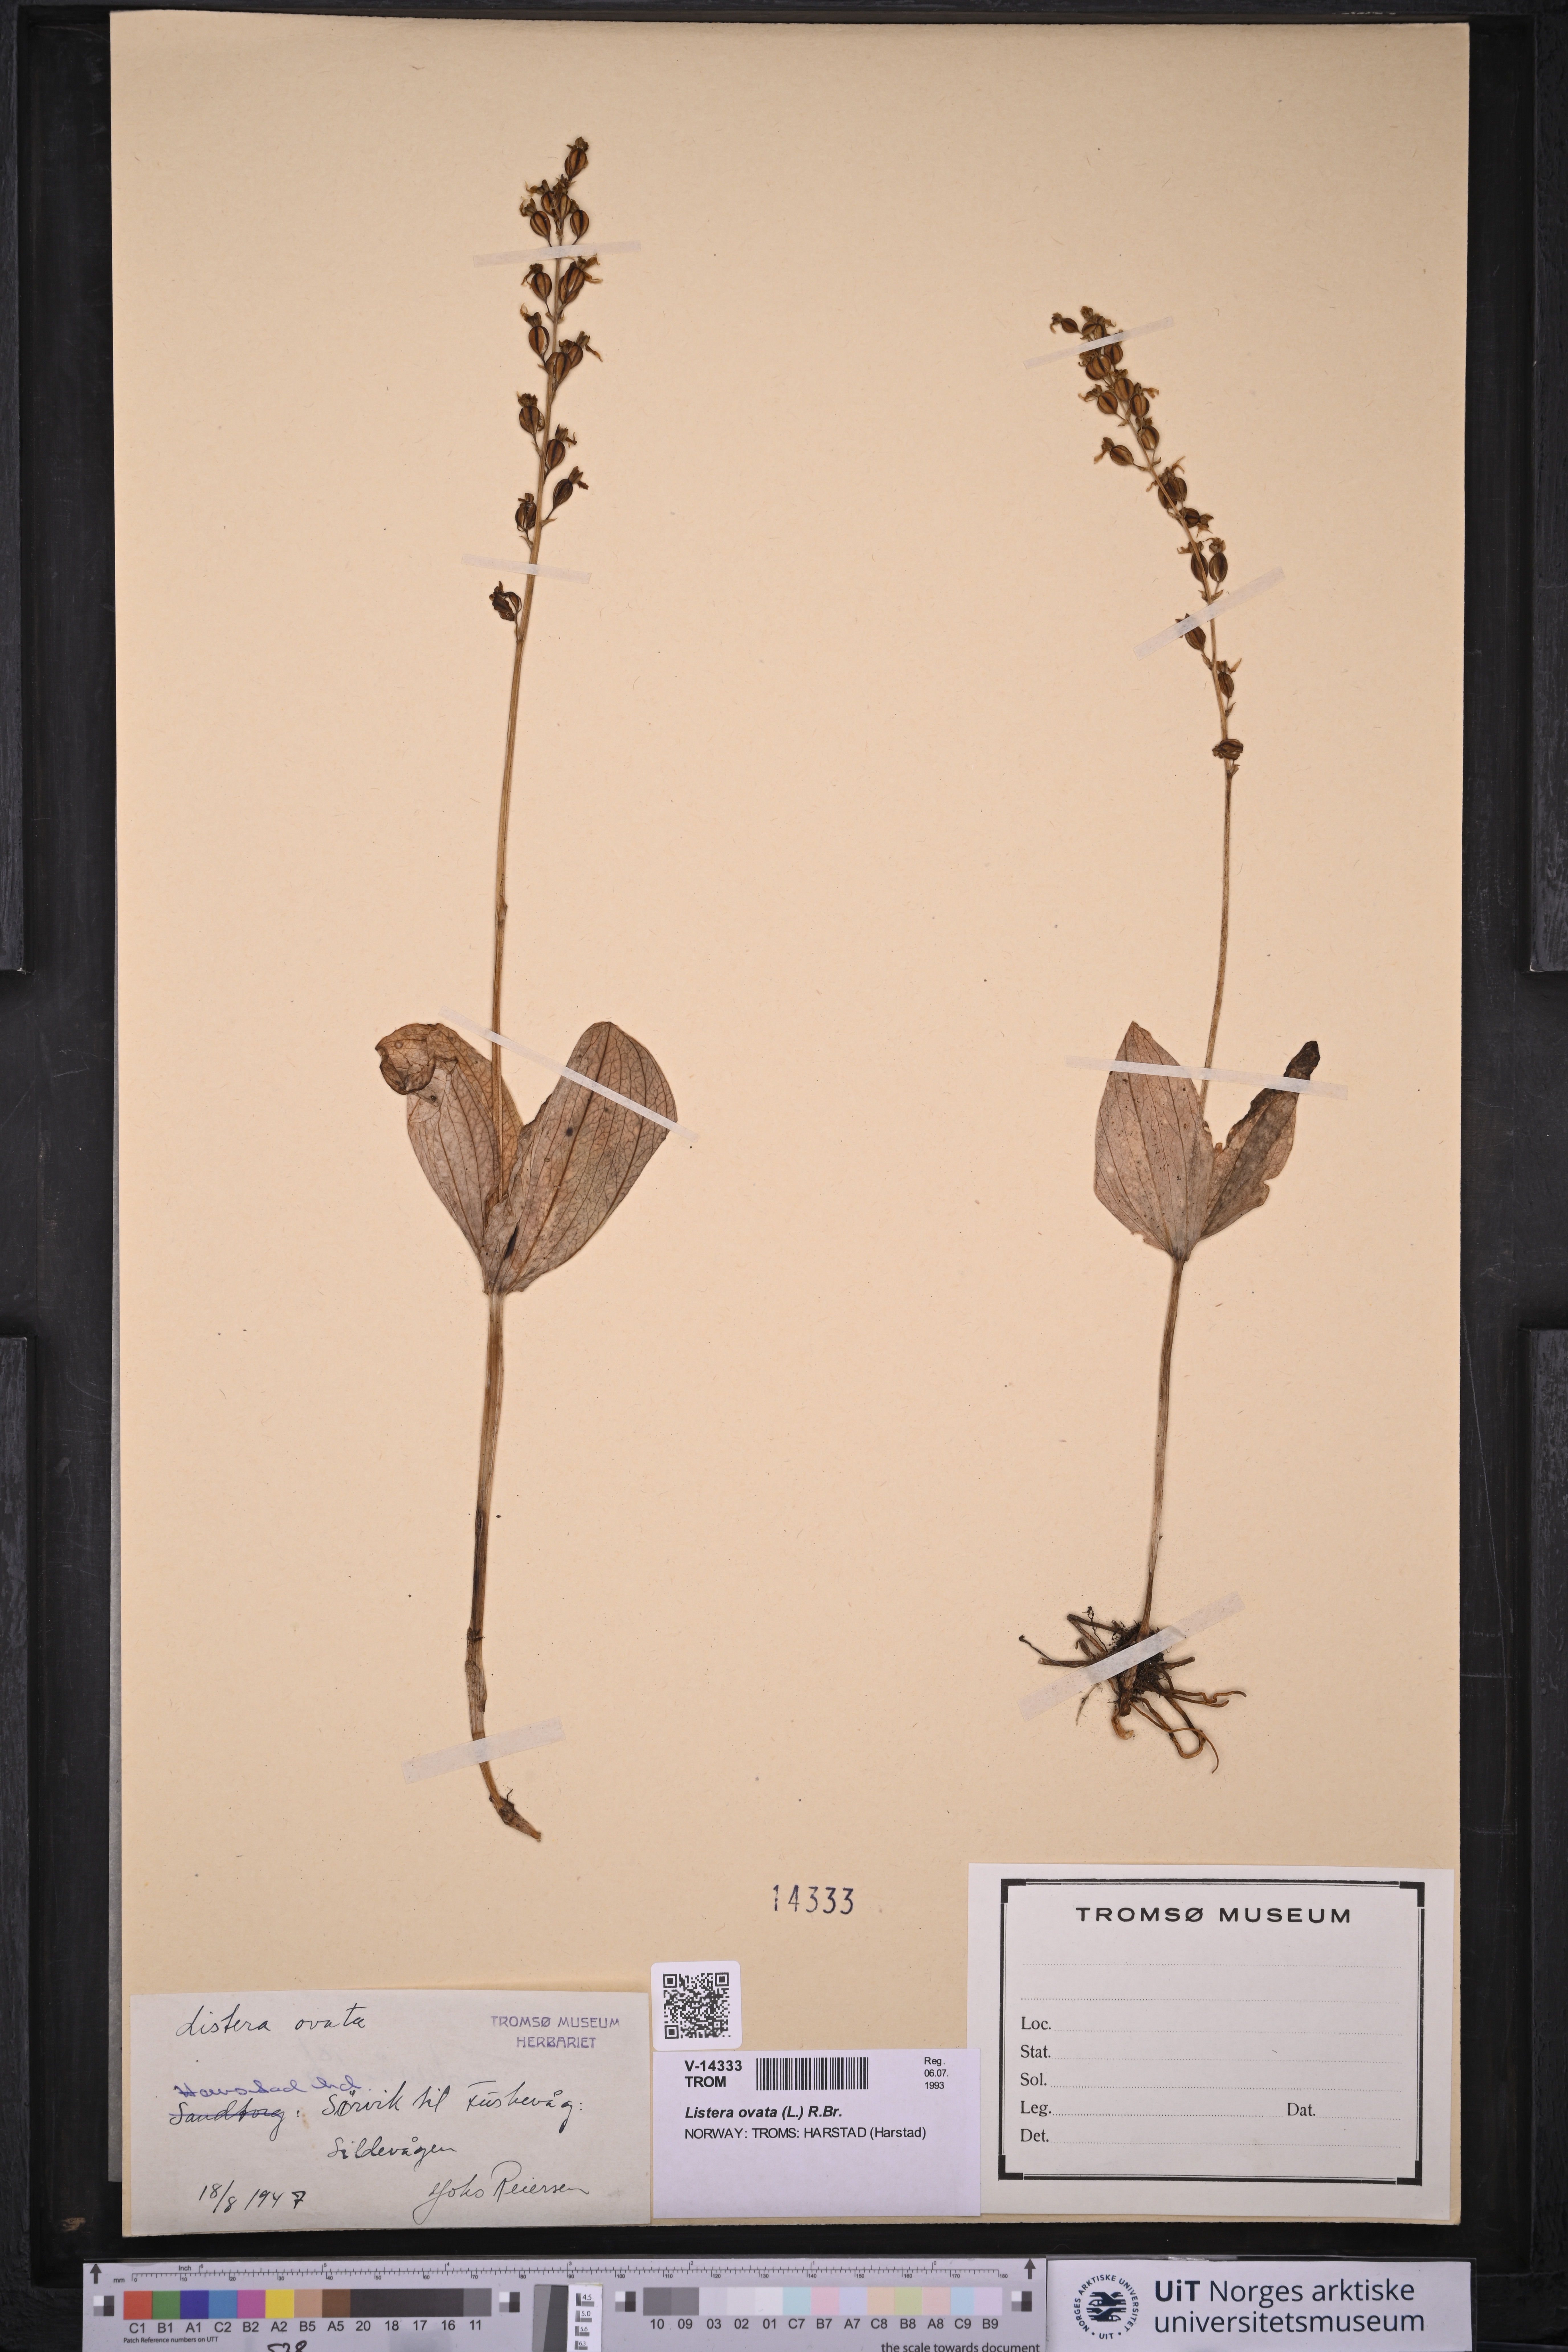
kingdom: Plantae
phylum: Tracheophyta
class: Liliopsida
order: Asparagales
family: Orchidaceae
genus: Neottia
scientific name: Neottia ovata
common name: Common twayblade
